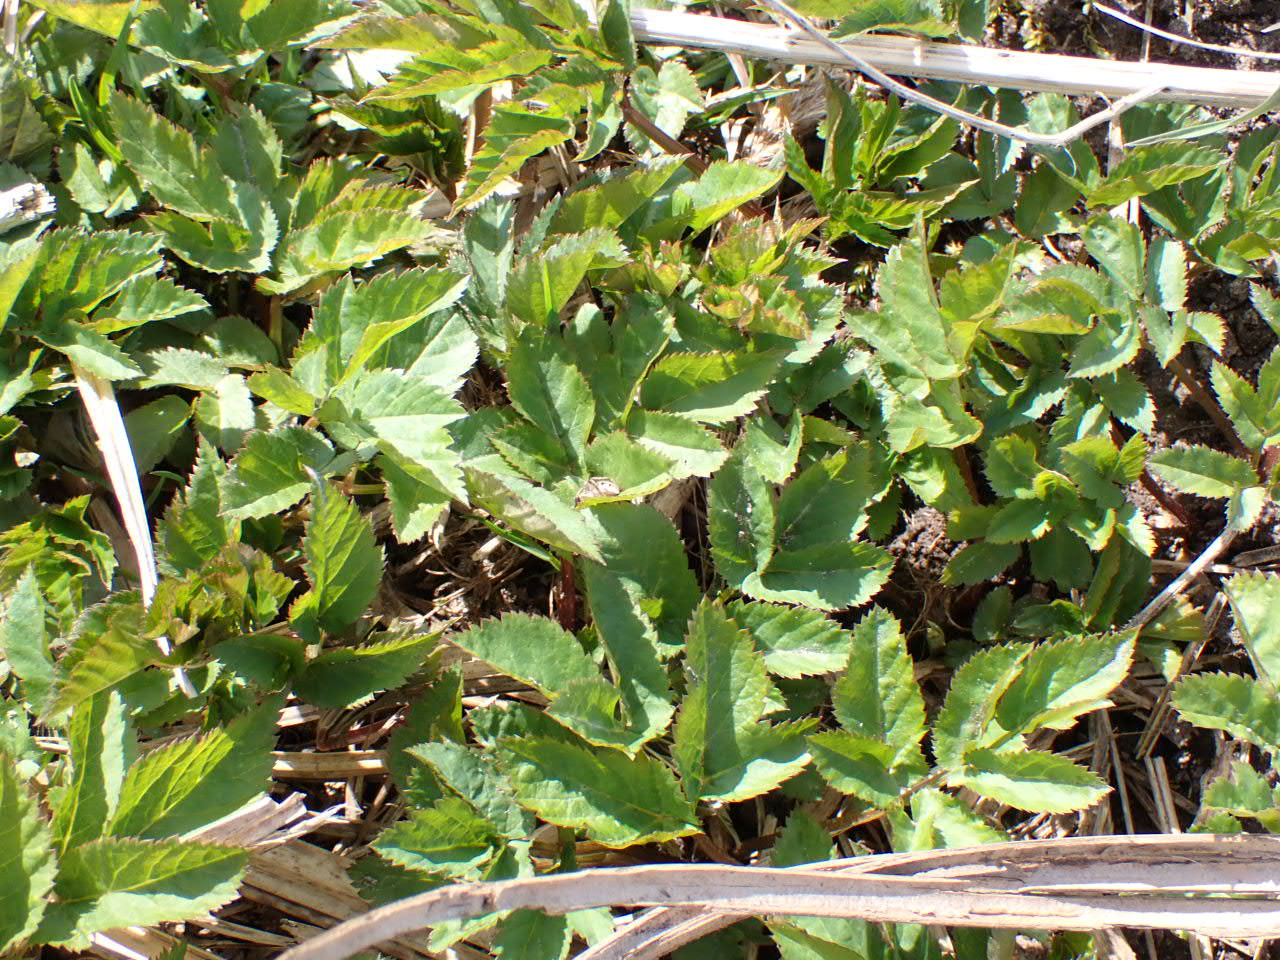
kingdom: Plantae
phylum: Tracheophyta
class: Magnoliopsida
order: Apiales
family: Apiaceae
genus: Aegopodium
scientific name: Aegopodium podagraria
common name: Skvalderkål
